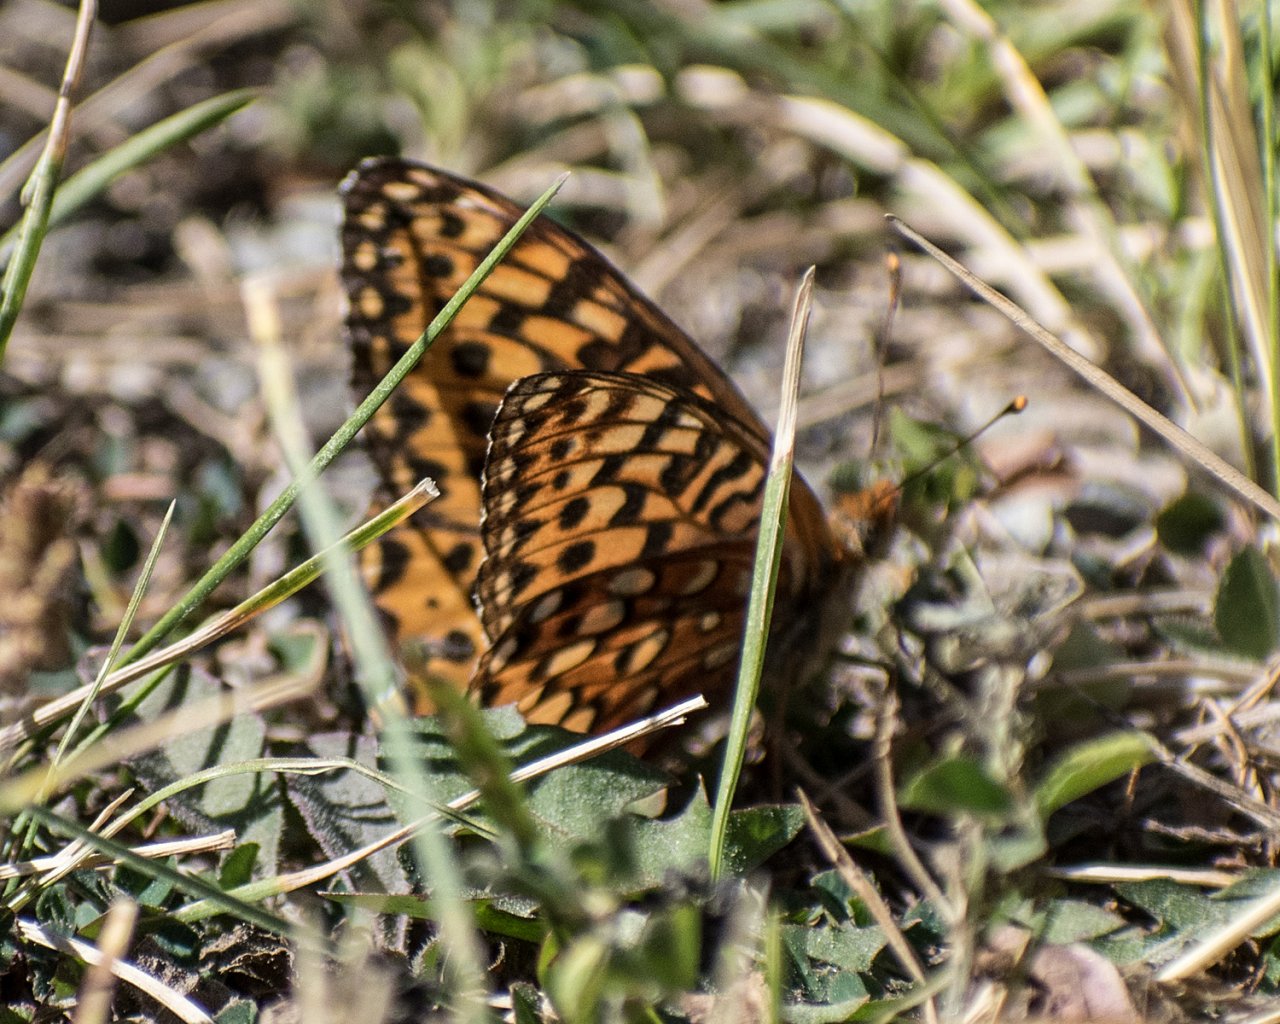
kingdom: Animalia
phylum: Arthropoda
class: Insecta
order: Lepidoptera
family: Nymphalidae
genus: Speyeria
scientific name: Speyeria hydaspe
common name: Hydaspe Fritillary
